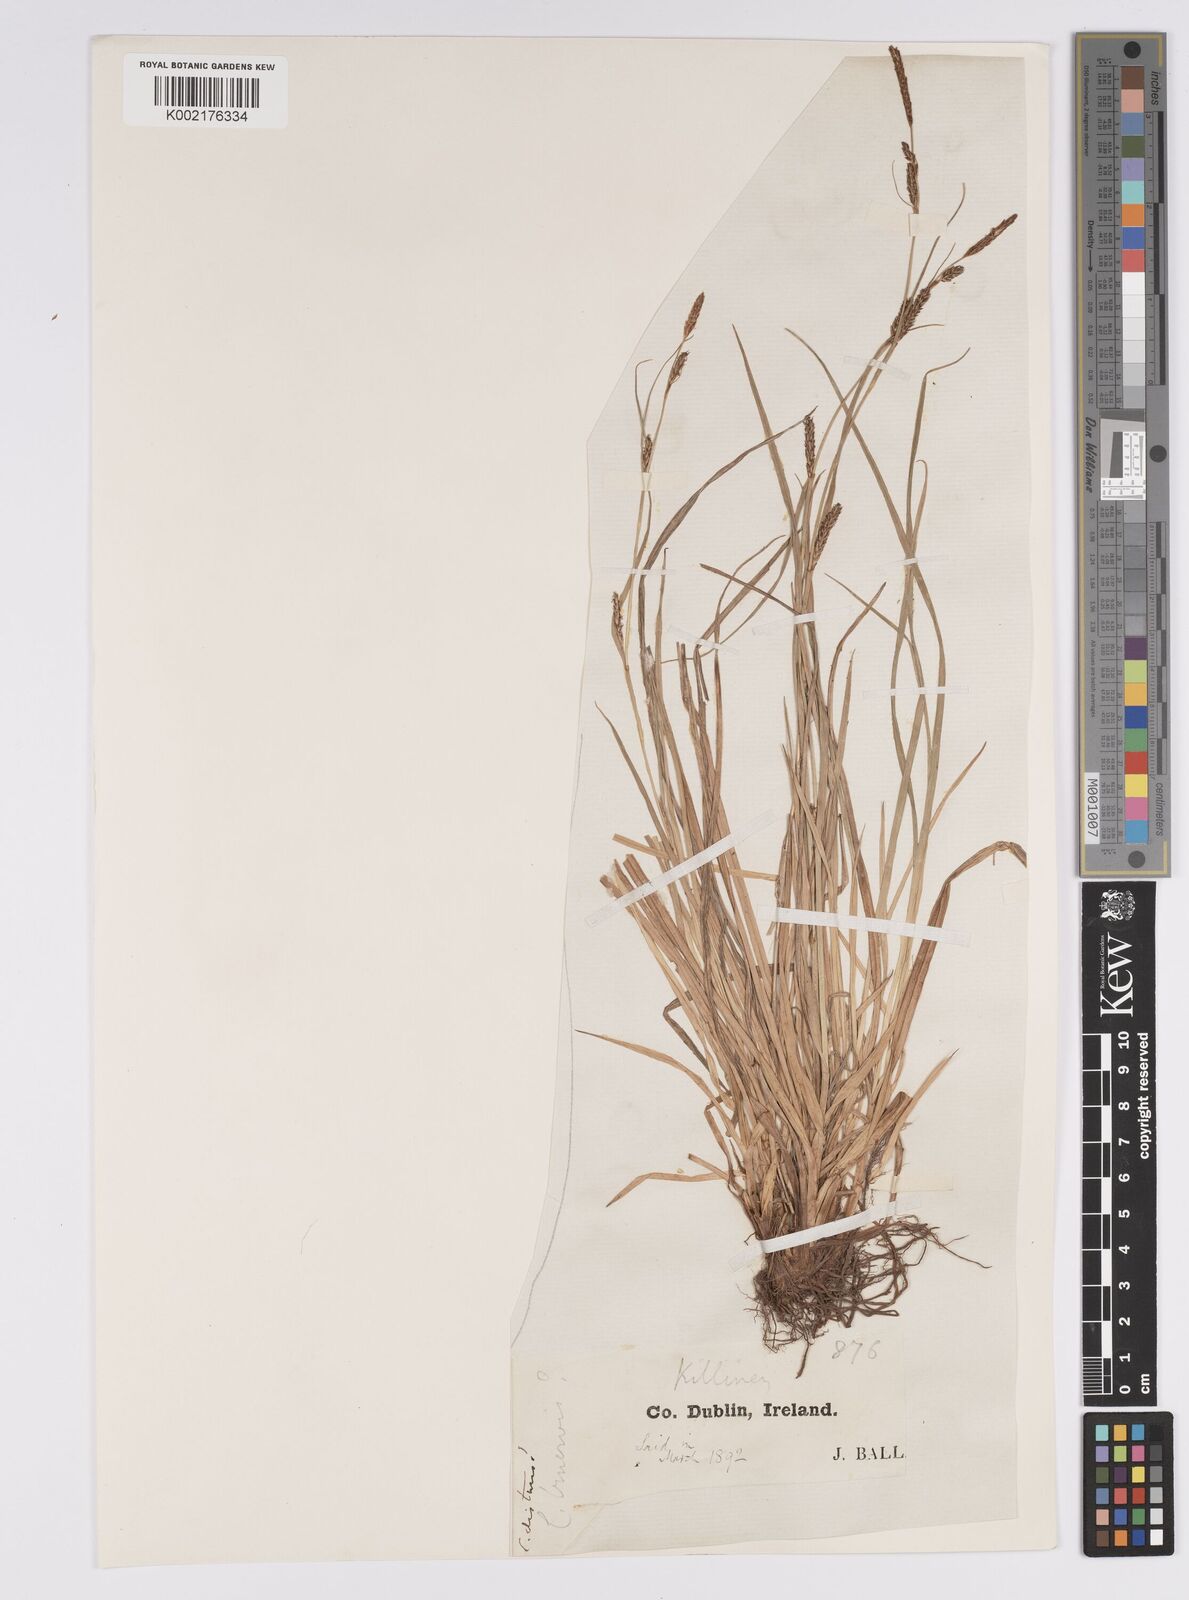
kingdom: Plantae
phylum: Tracheophyta
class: Liliopsida
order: Poales
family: Cyperaceae
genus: Carex
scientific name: Carex distans
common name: Distant sedge
